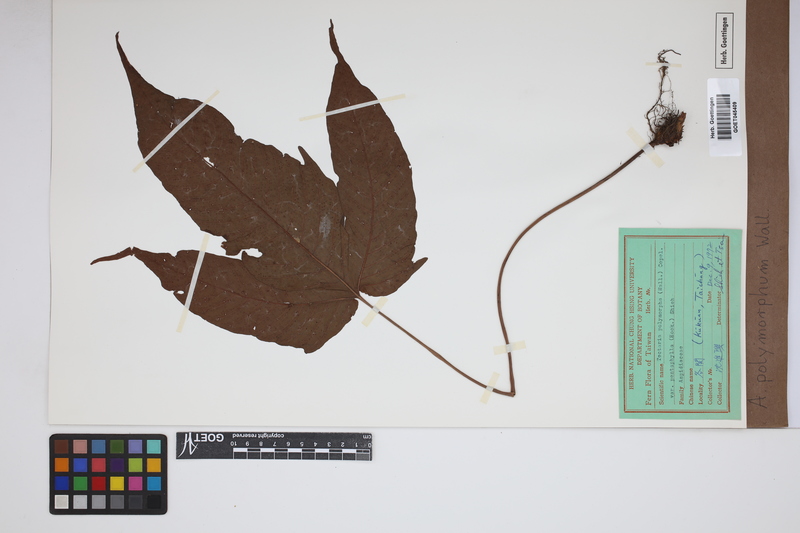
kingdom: Plantae
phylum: Tracheophyta
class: Polypodiopsida
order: Polypodiales
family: Tectariaceae
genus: Tectaria
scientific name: Tectaria polymorpha
